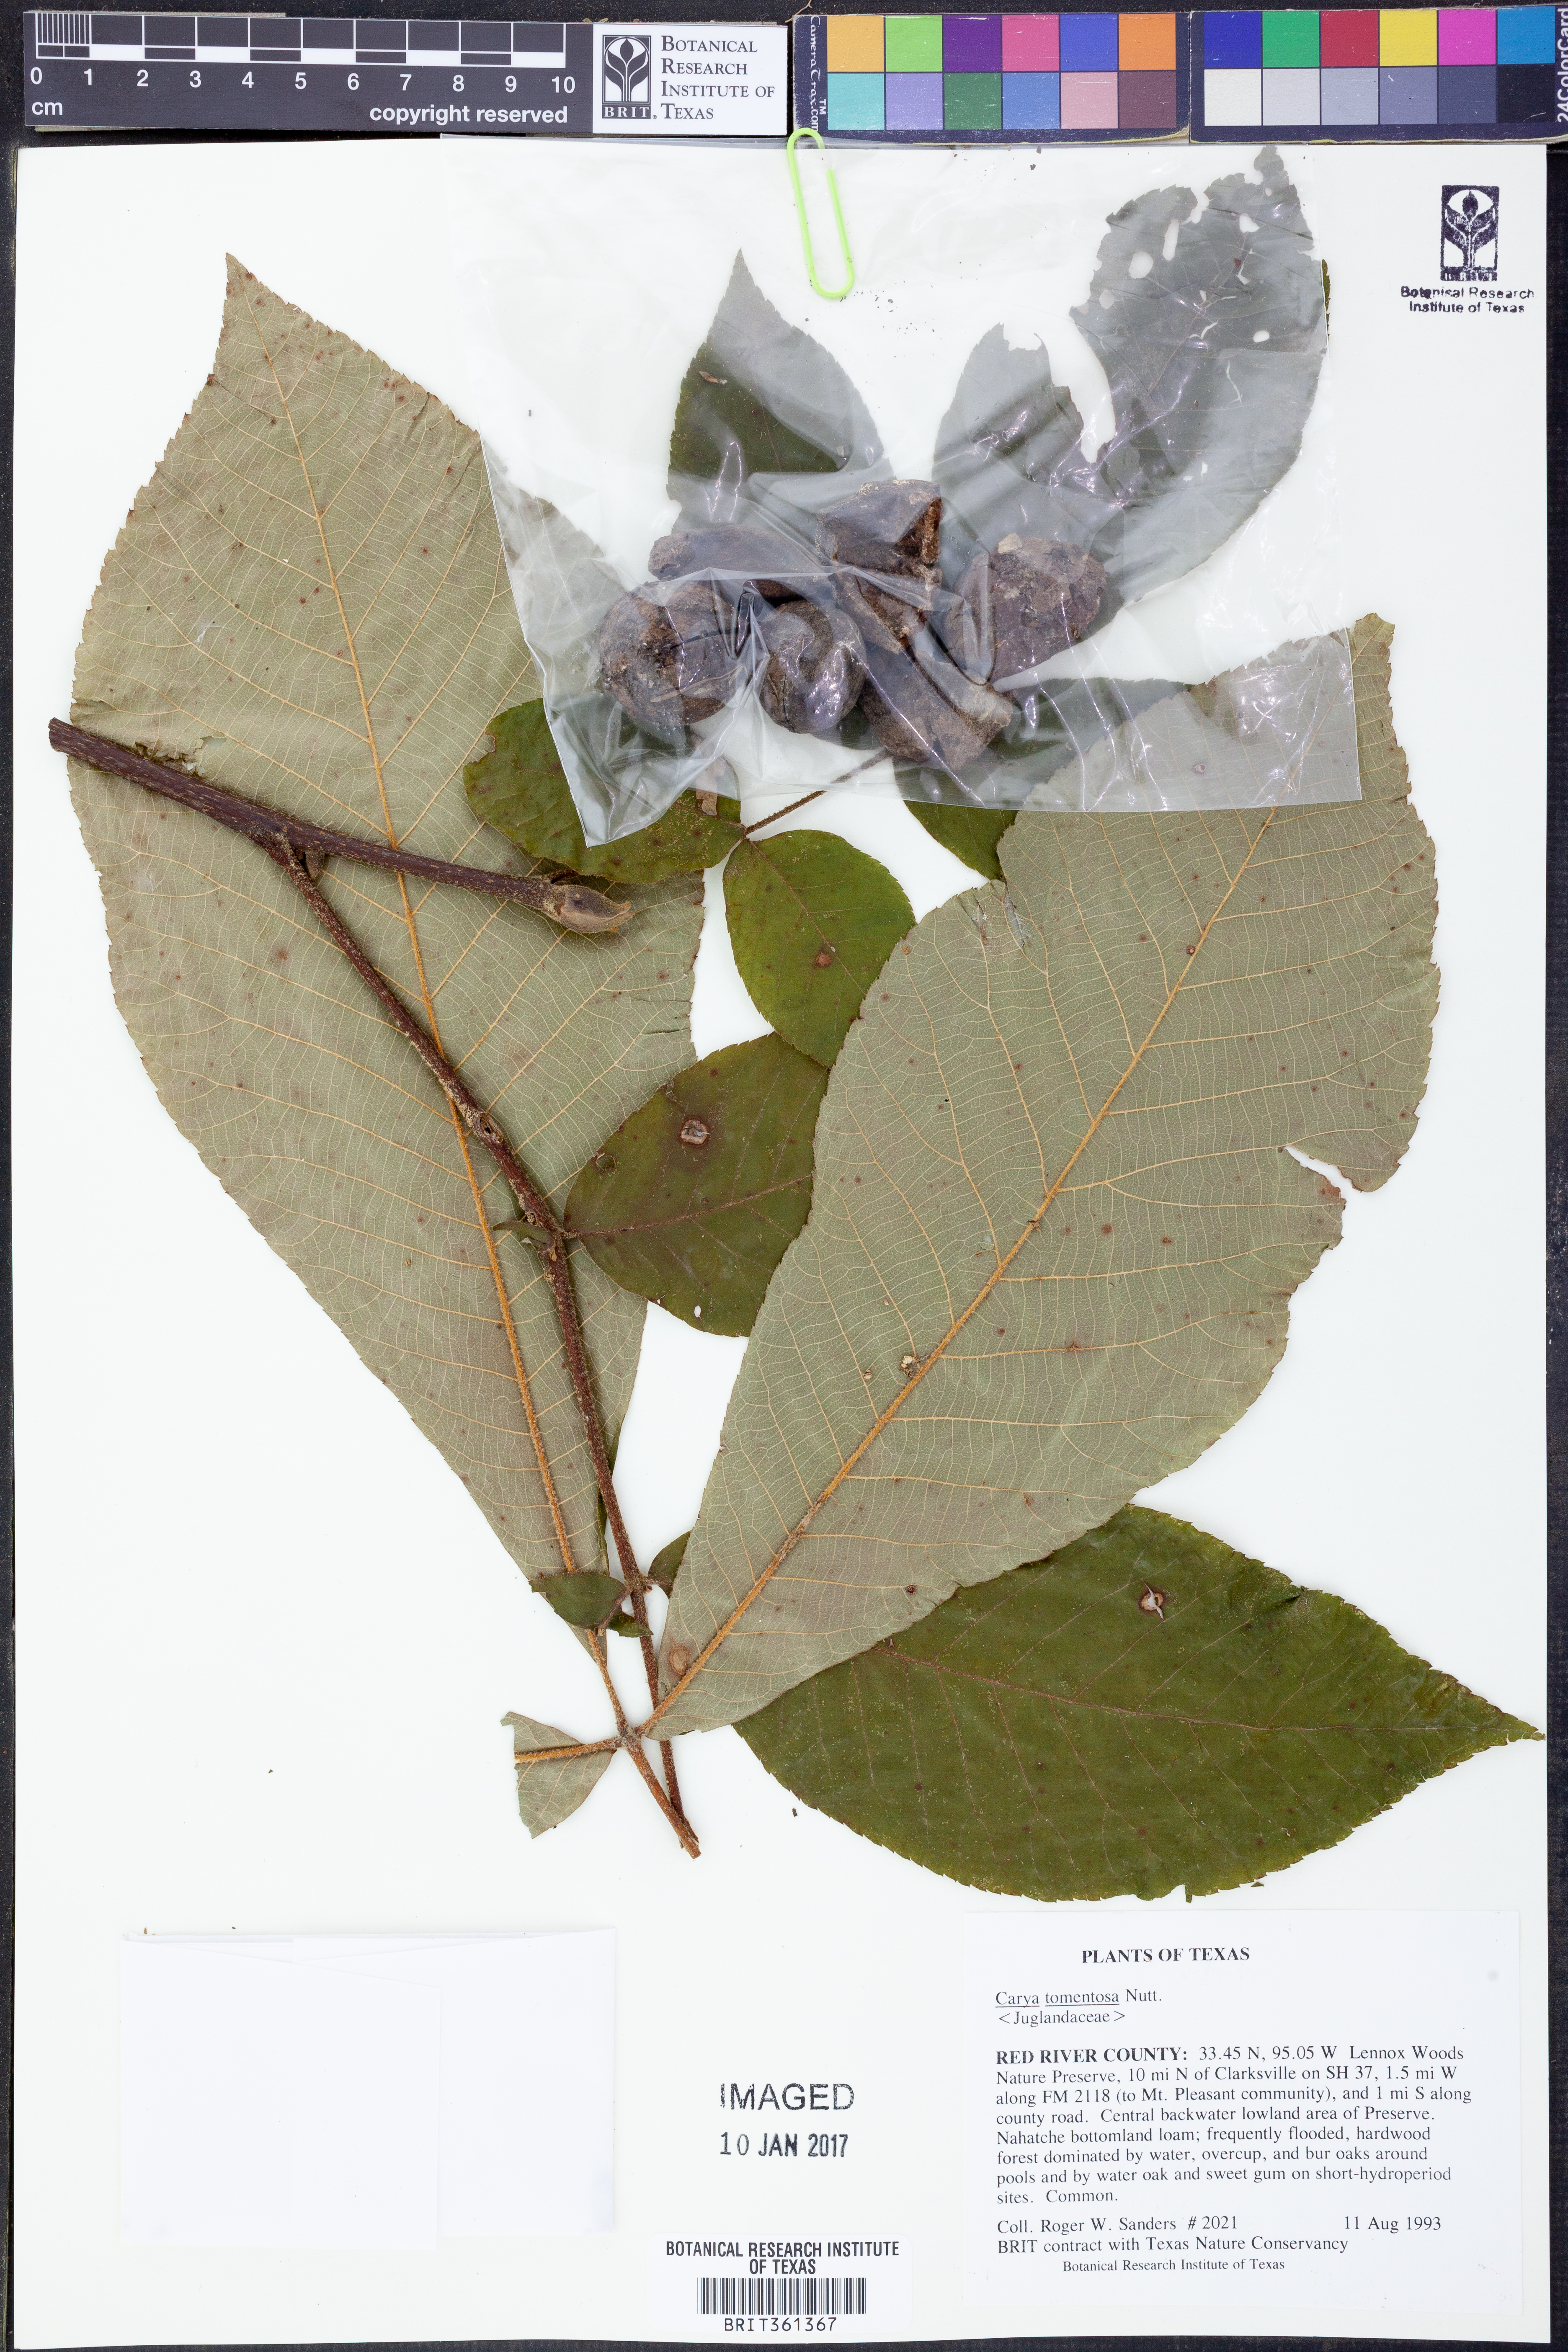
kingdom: Plantae
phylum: Tracheophyta
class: Magnoliopsida
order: Fagales
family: Juglandaceae
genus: Carya
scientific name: Carya alba
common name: Mockernut hickory
